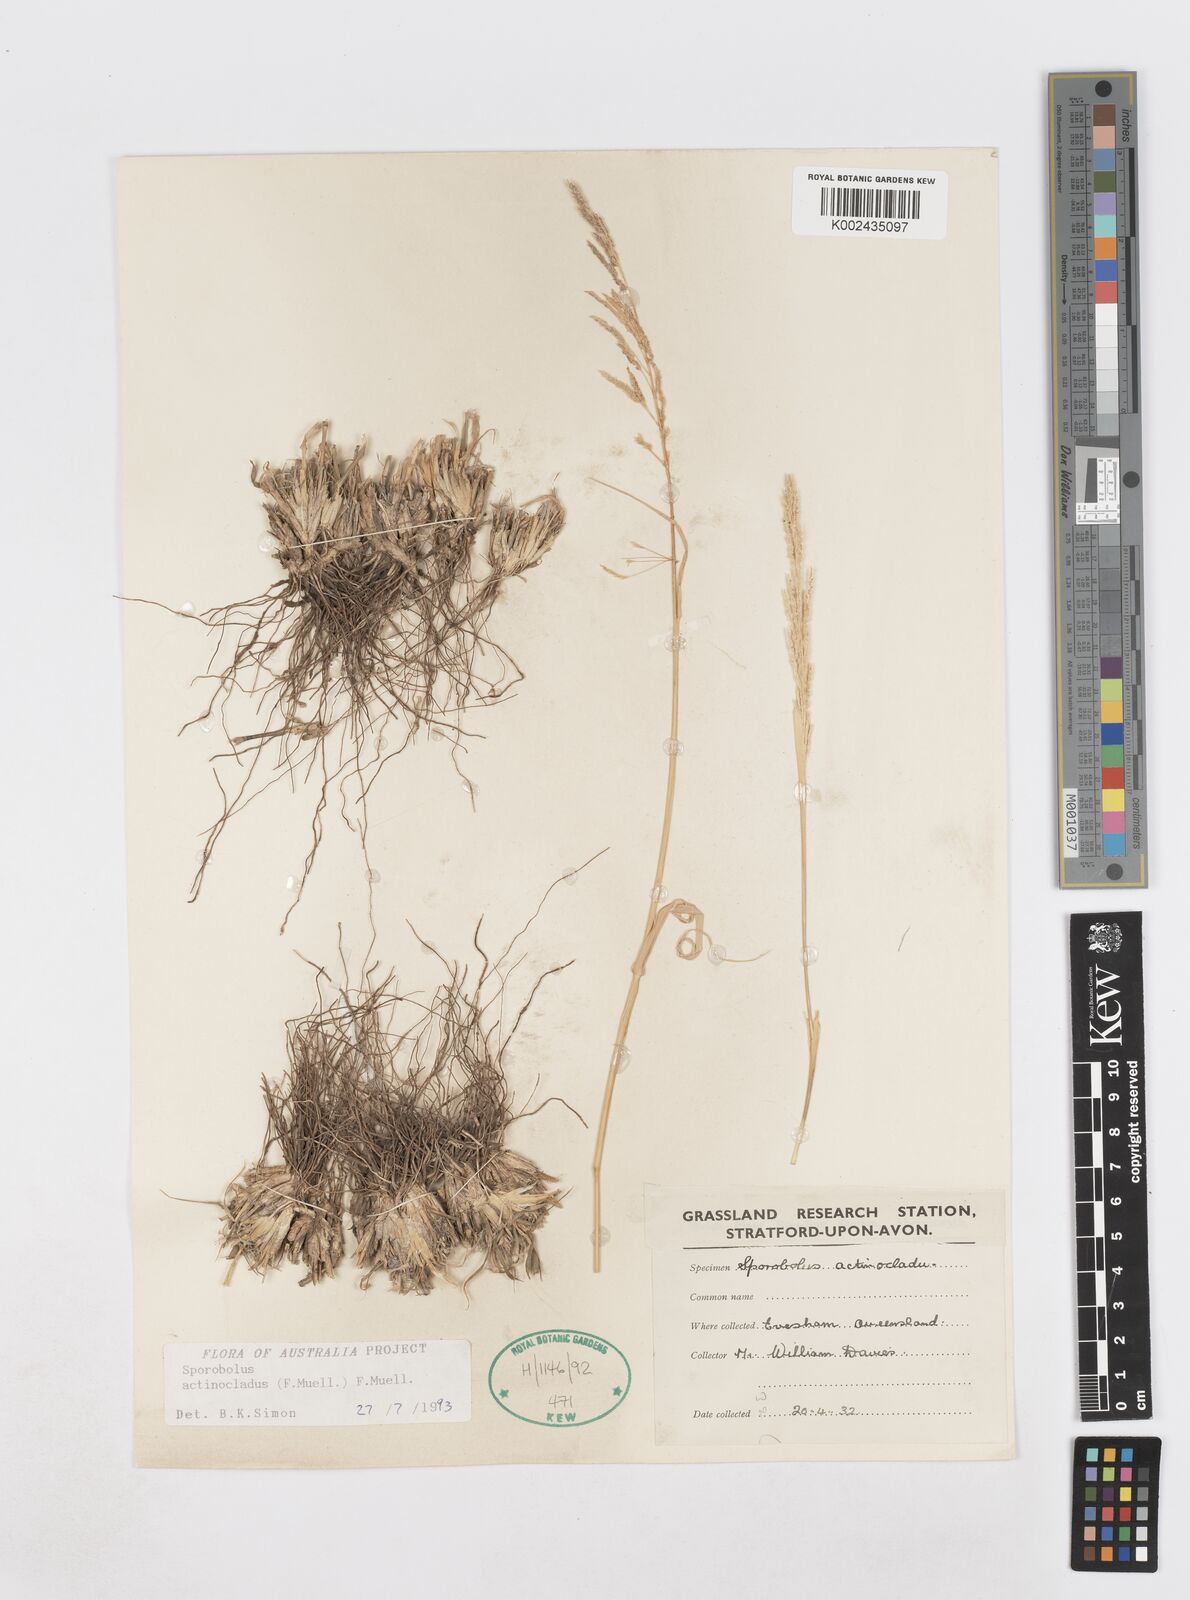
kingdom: Plantae
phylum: Tracheophyta
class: Liliopsida
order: Poales
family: Poaceae
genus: Sporobolus
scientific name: Sporobolus actinocladus
